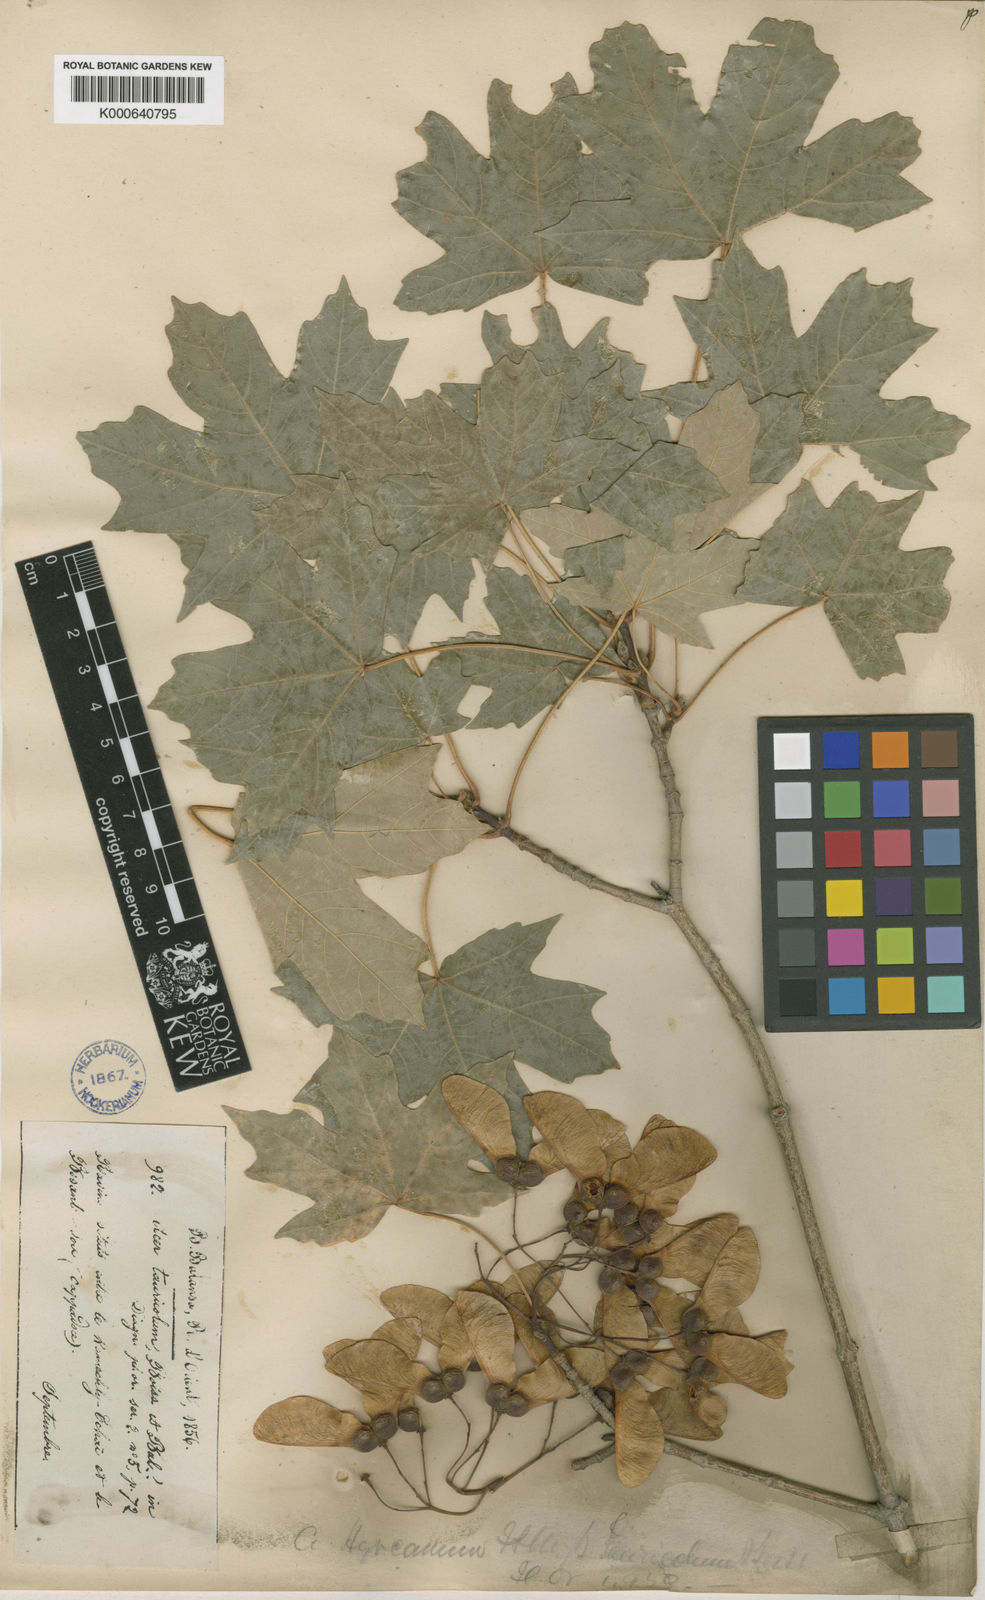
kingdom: Plantae
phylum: Tracheophyta
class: Magnoliopsida
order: Sapindales
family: Sapindaceae
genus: Acer
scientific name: Acer hyrcanum
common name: Balkan maple
